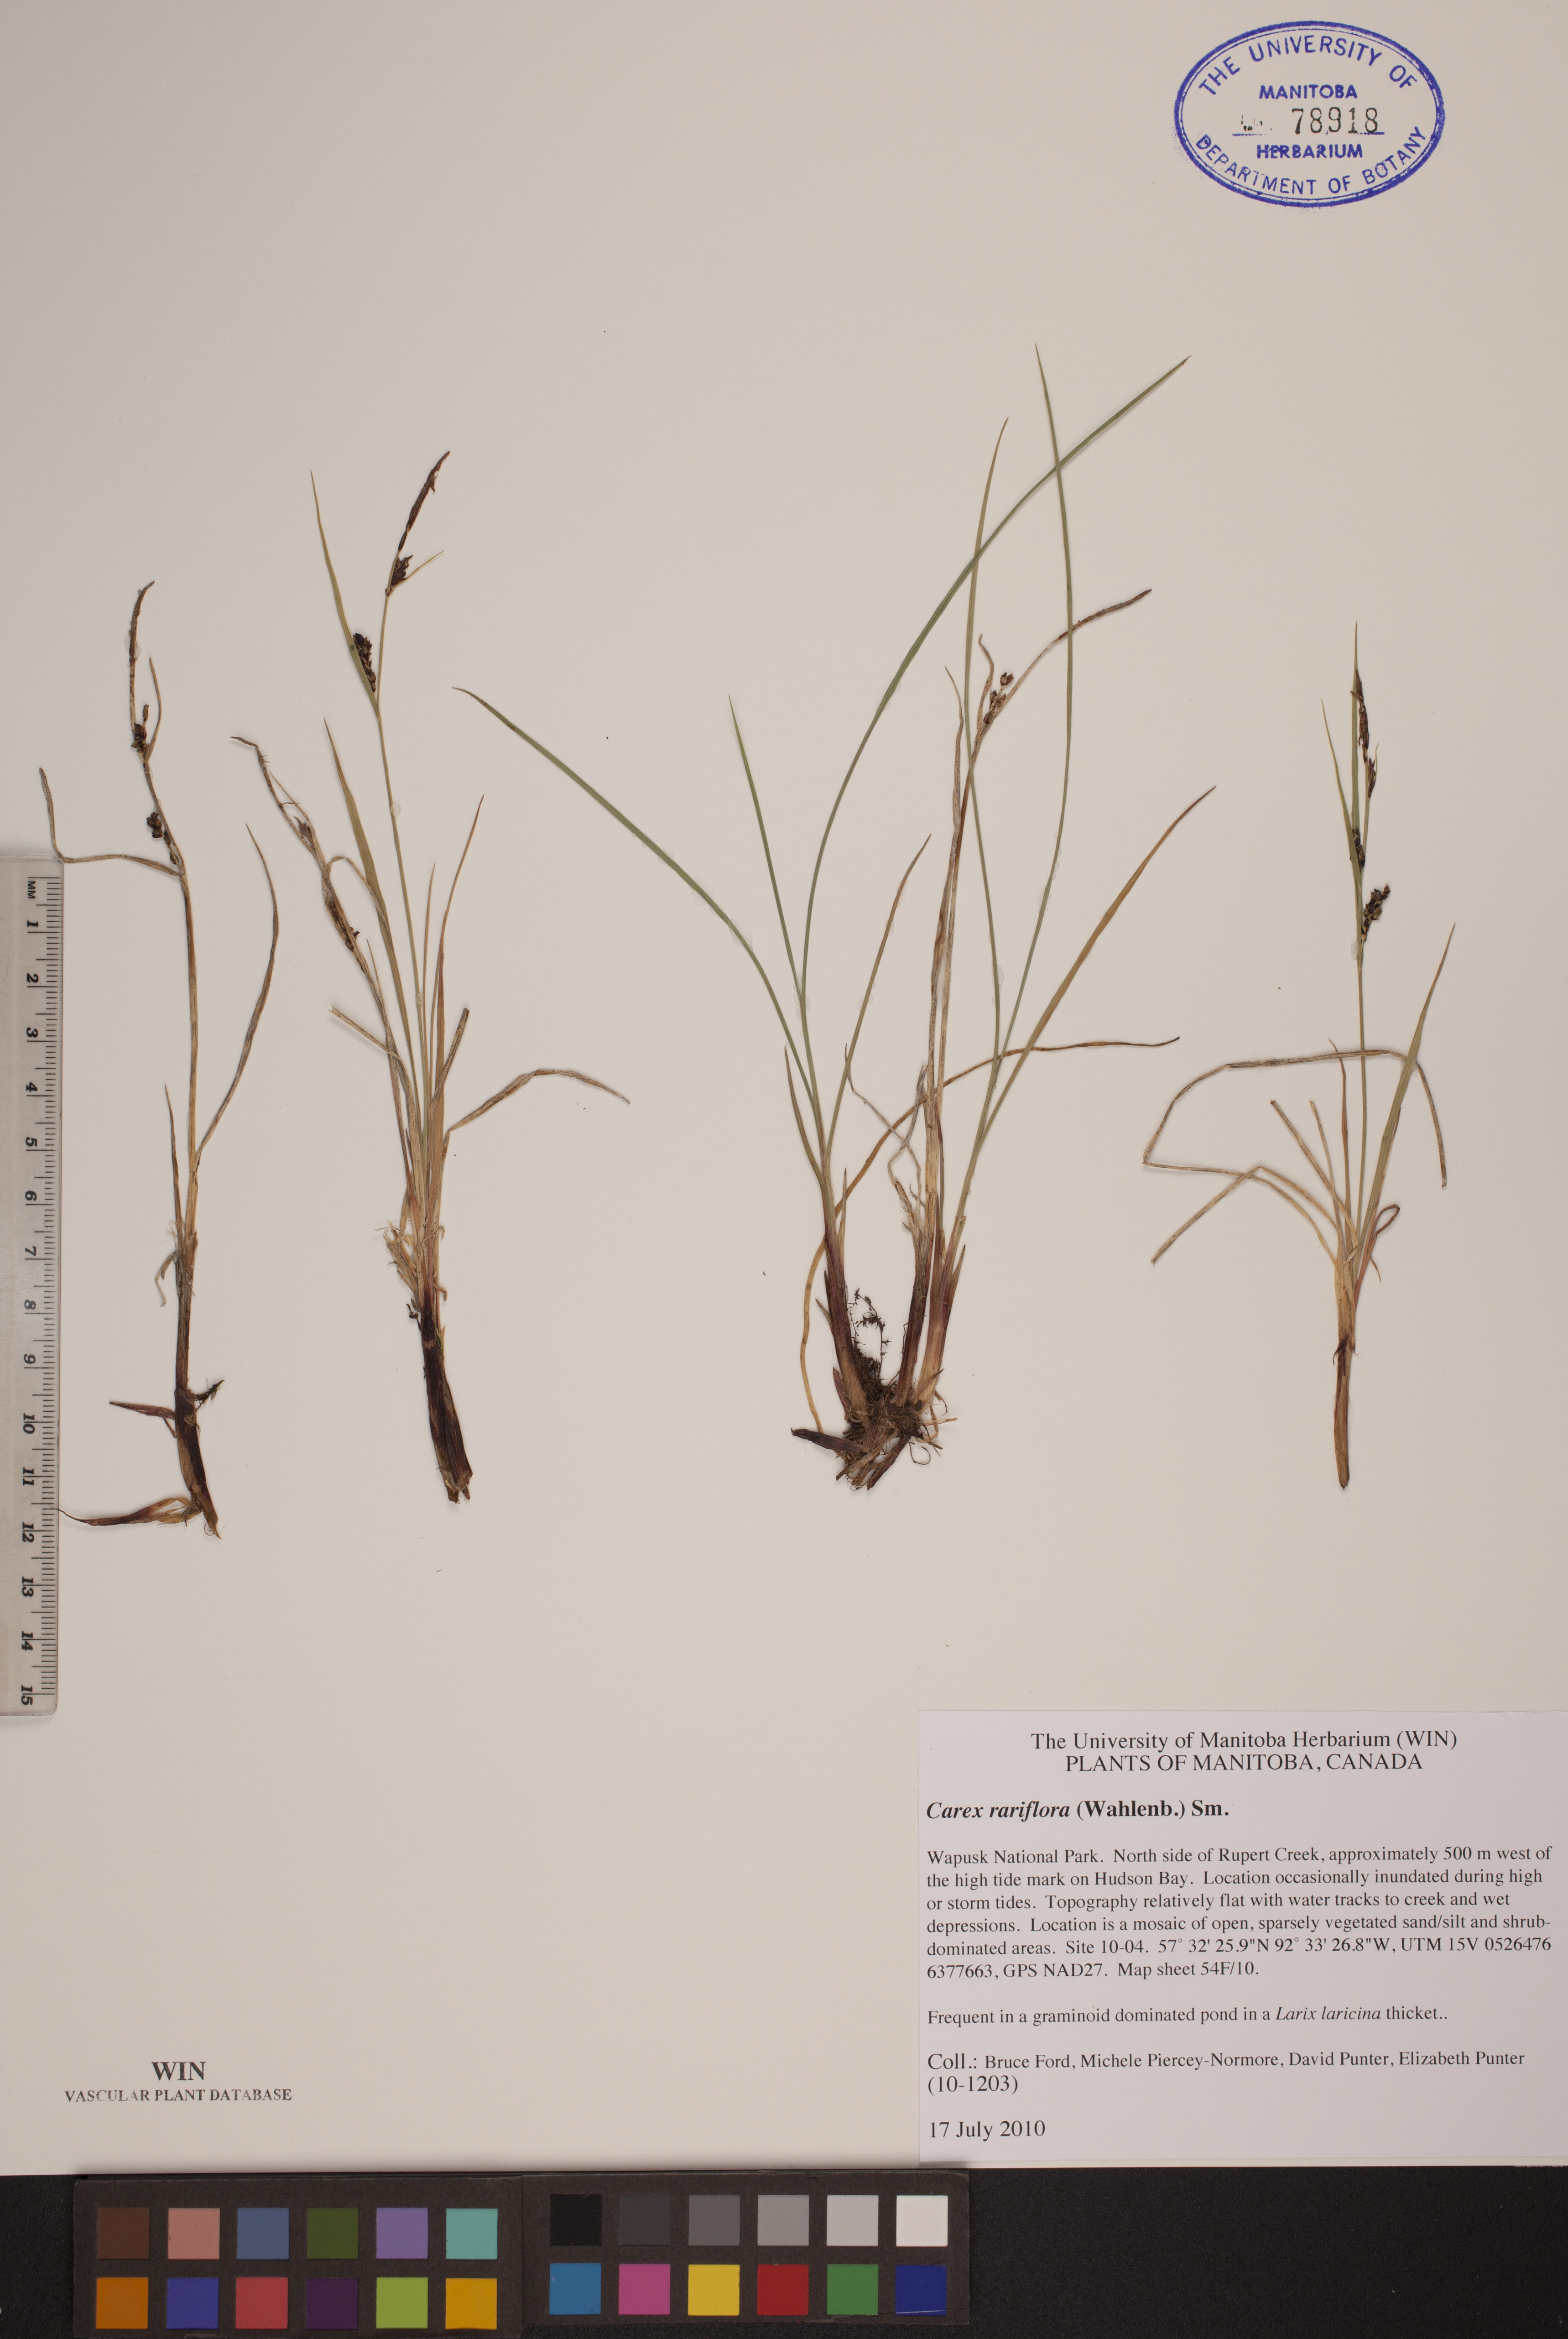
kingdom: Plantae
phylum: Tracheophyta
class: Liliopsida
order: Poales
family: Cyperaceae
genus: Carex
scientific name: Carex rariflora
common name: Loose-flowered alpine sedge
